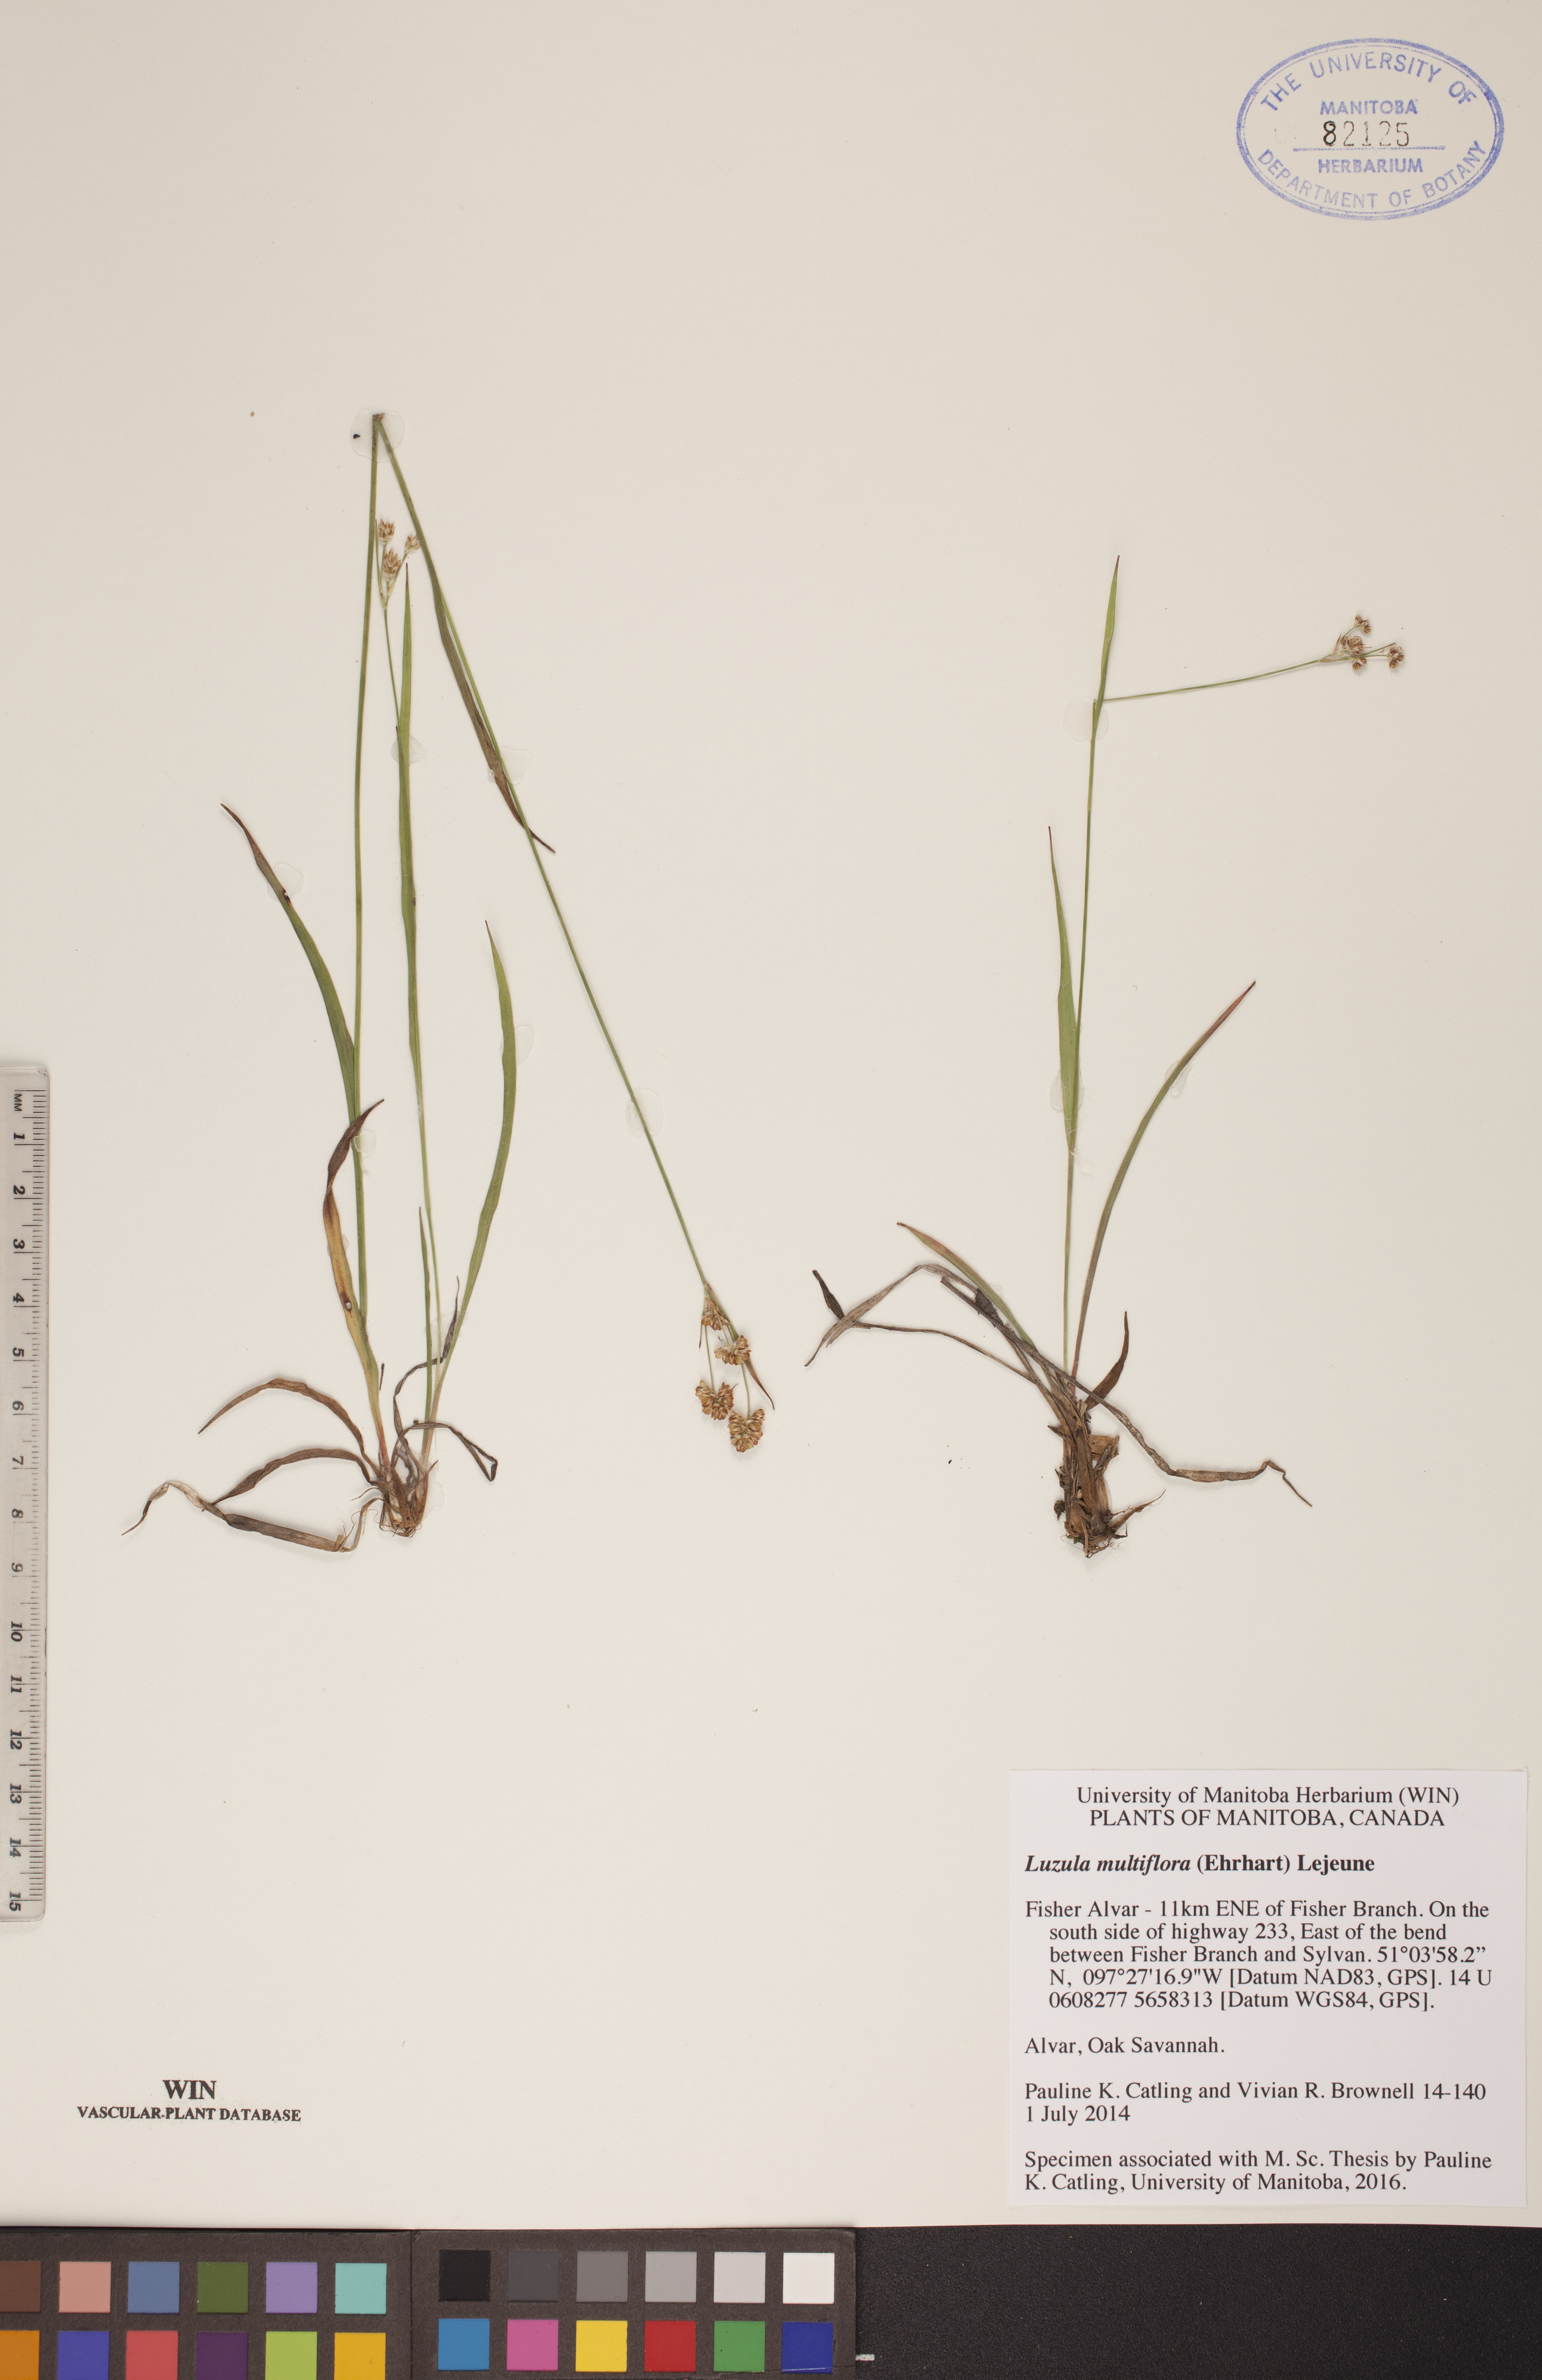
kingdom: Plantae
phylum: Tracheophyta
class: Liliopsida
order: Poales
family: Juncaceae
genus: Luzula
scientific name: Luzula multiflora
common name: Heath wood-rush
